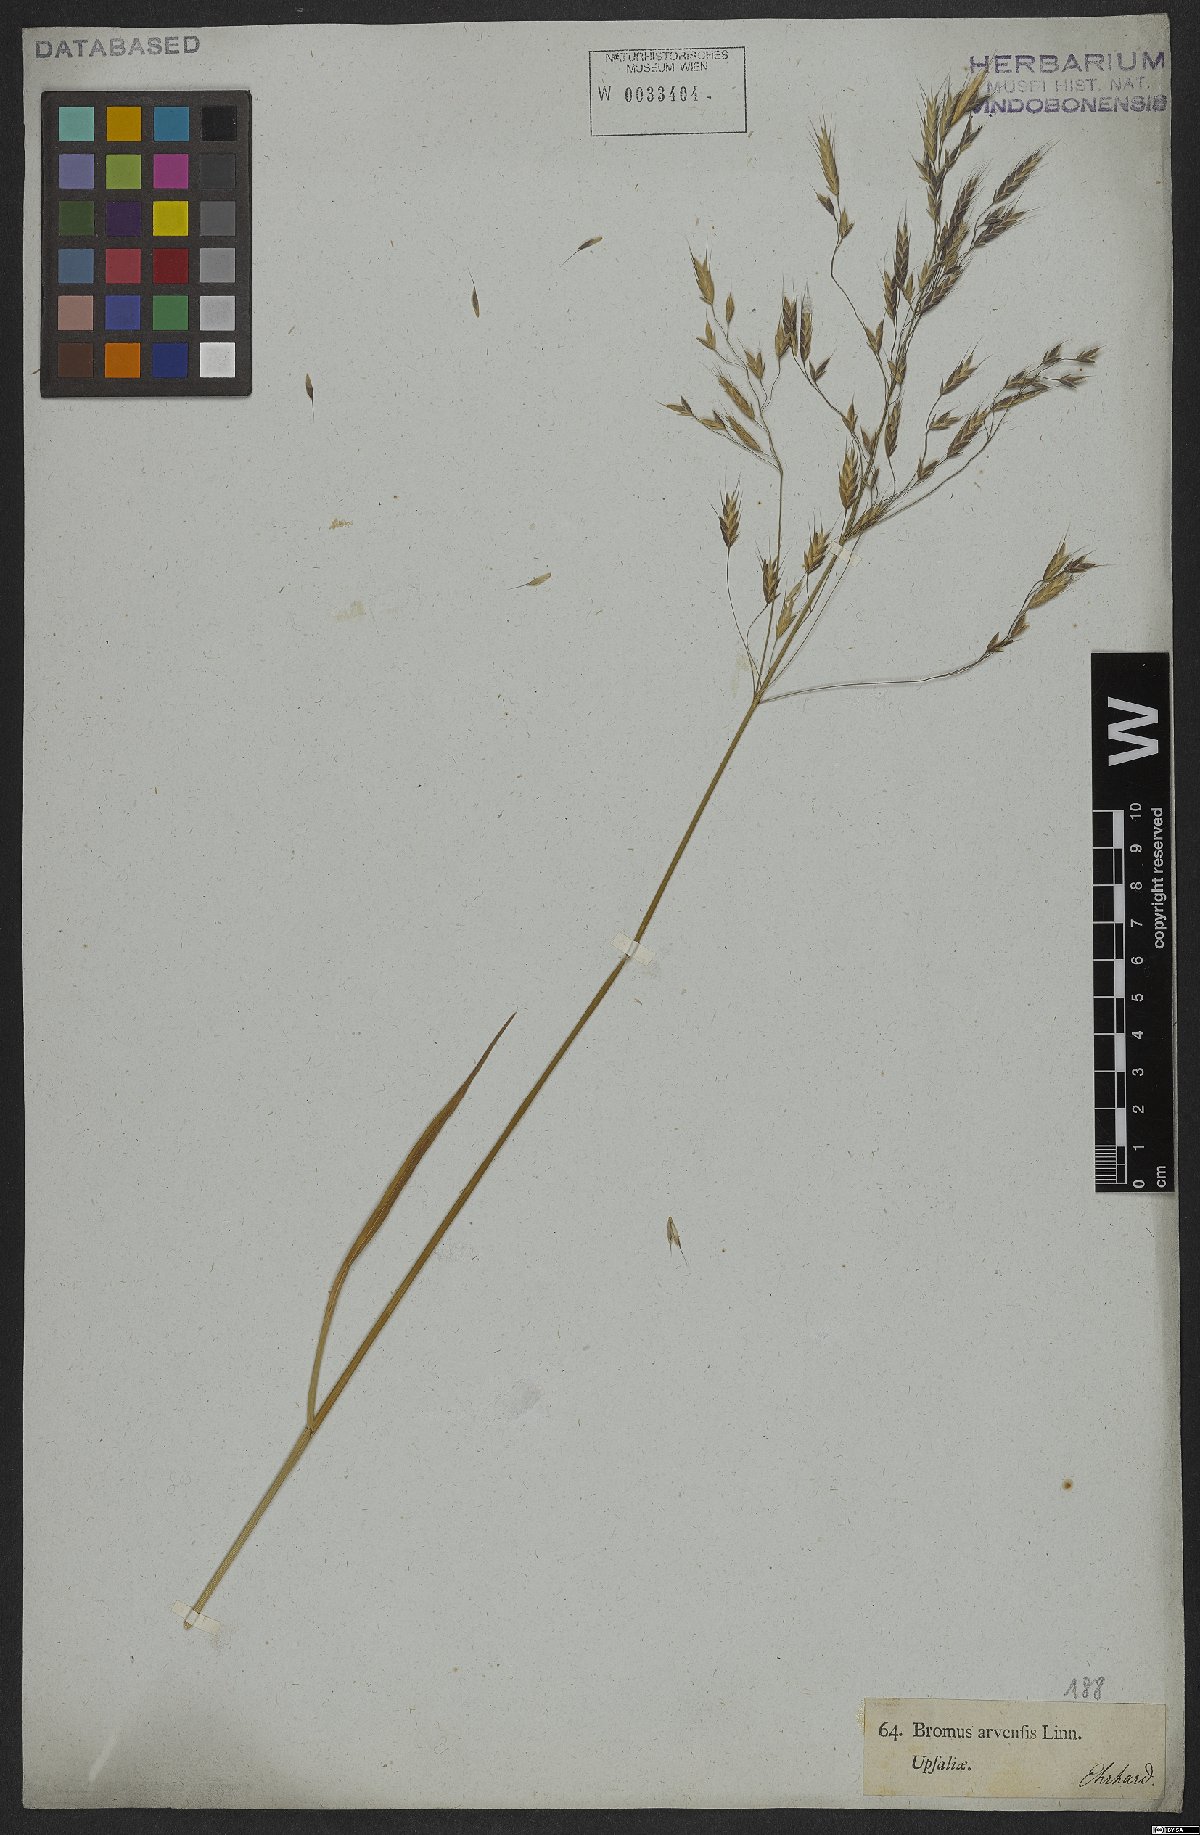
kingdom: Plantae
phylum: Tracheophyta
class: Liliopsida
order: Poales
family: Poaceae
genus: Bromus
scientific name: Bromus arvensis
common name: Field brome
